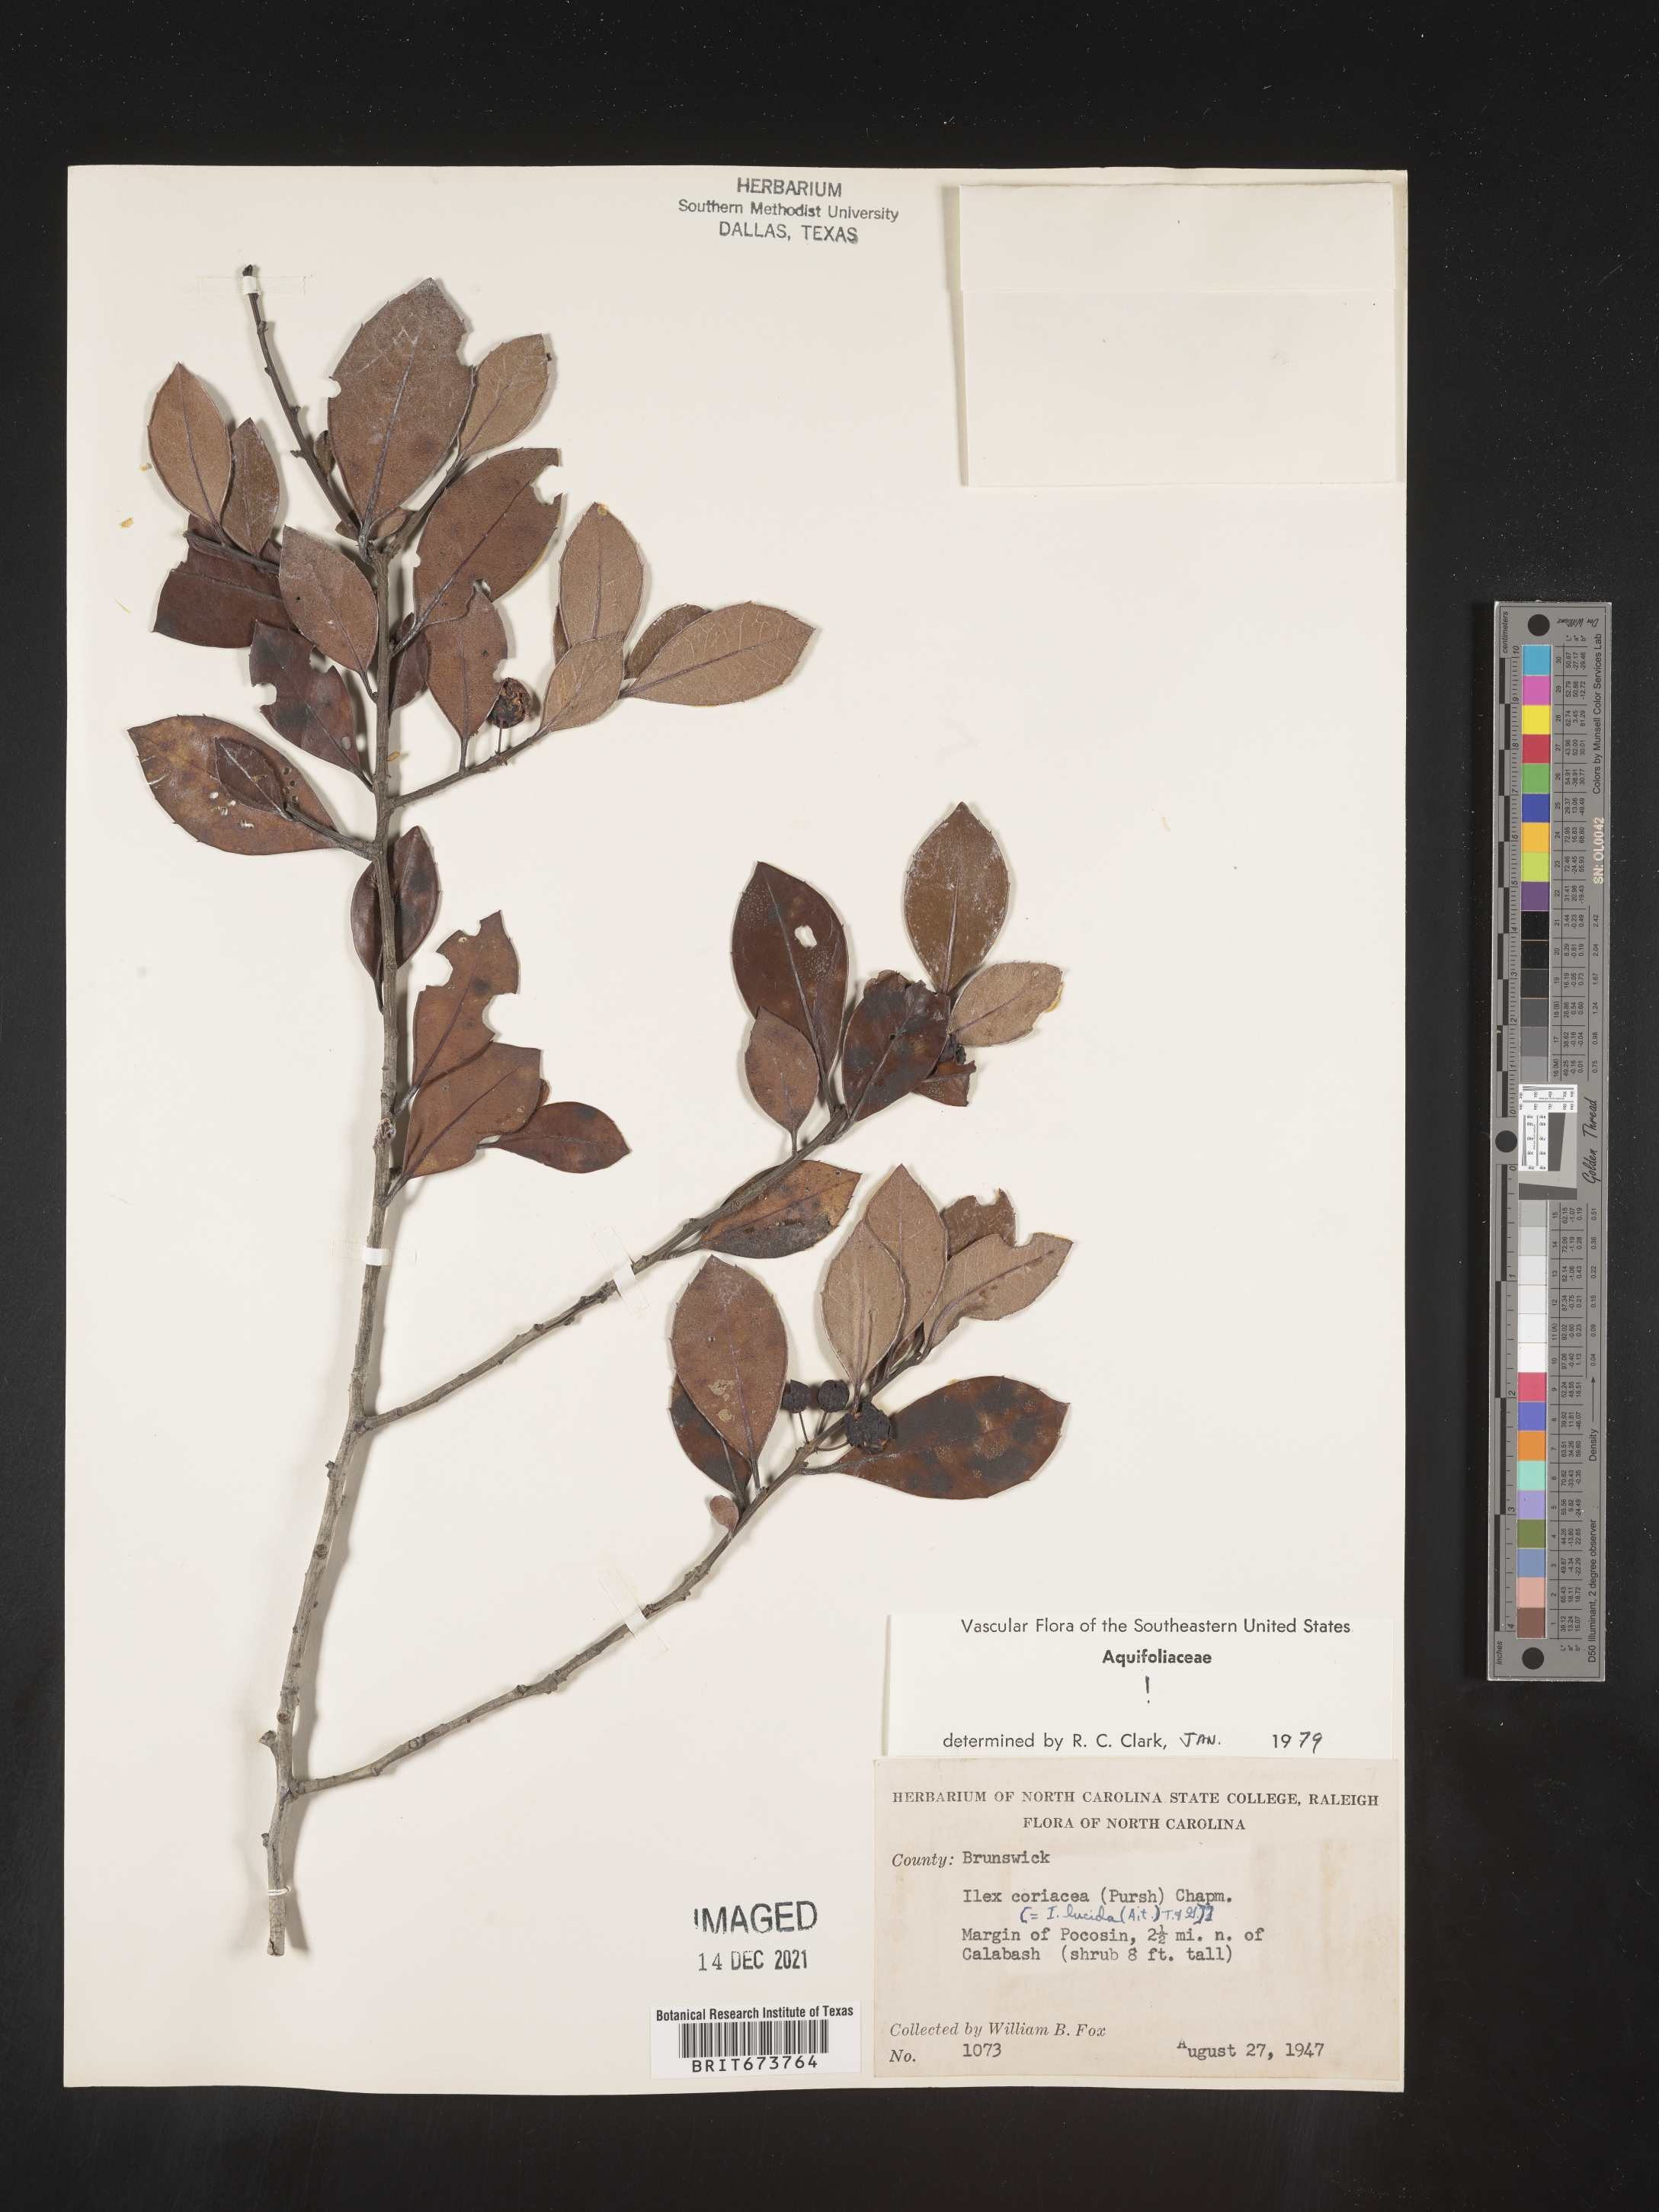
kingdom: Plantae
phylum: Tracheophyta
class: Magnoliopsida
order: Aquifoliales
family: Aquifoliaceae
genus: Ilex
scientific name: Ilex coriacea
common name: Sweet gallberry
